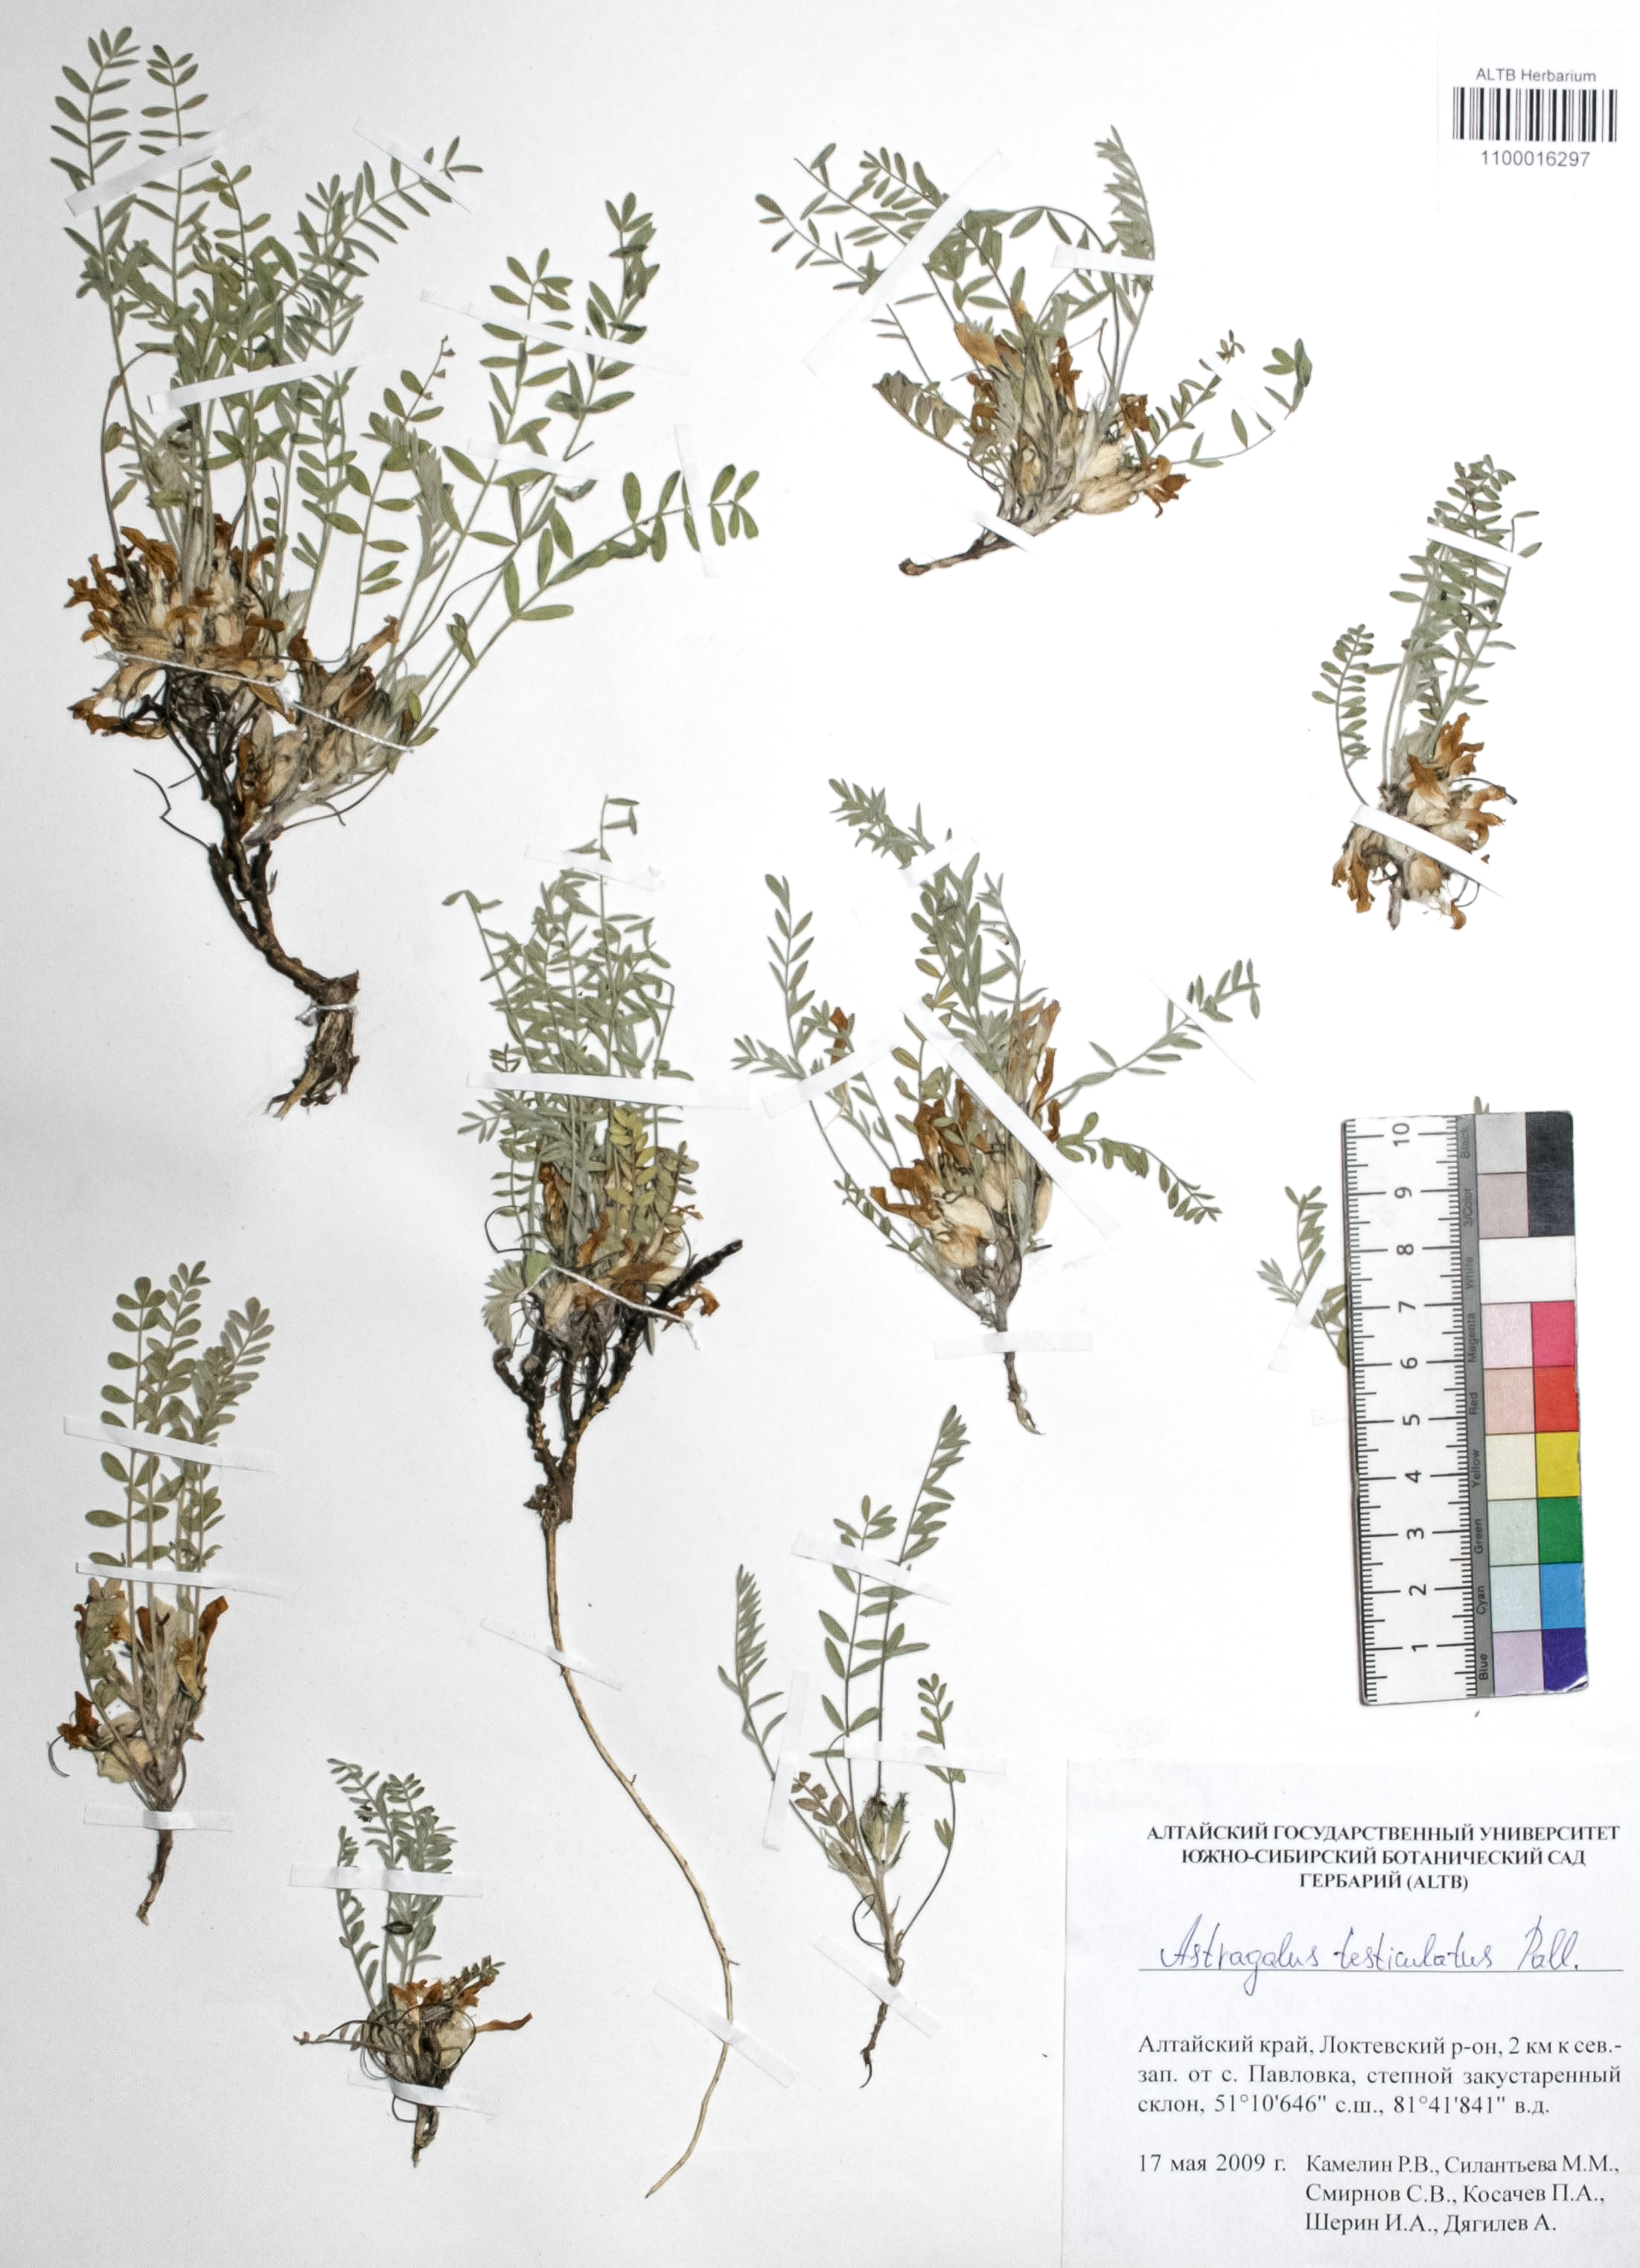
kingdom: Plantae
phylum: Tracheophyta
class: Magnoliopsida
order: Fabales
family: Fabaceae
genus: Astragalus
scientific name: Astragalus testiculatus
